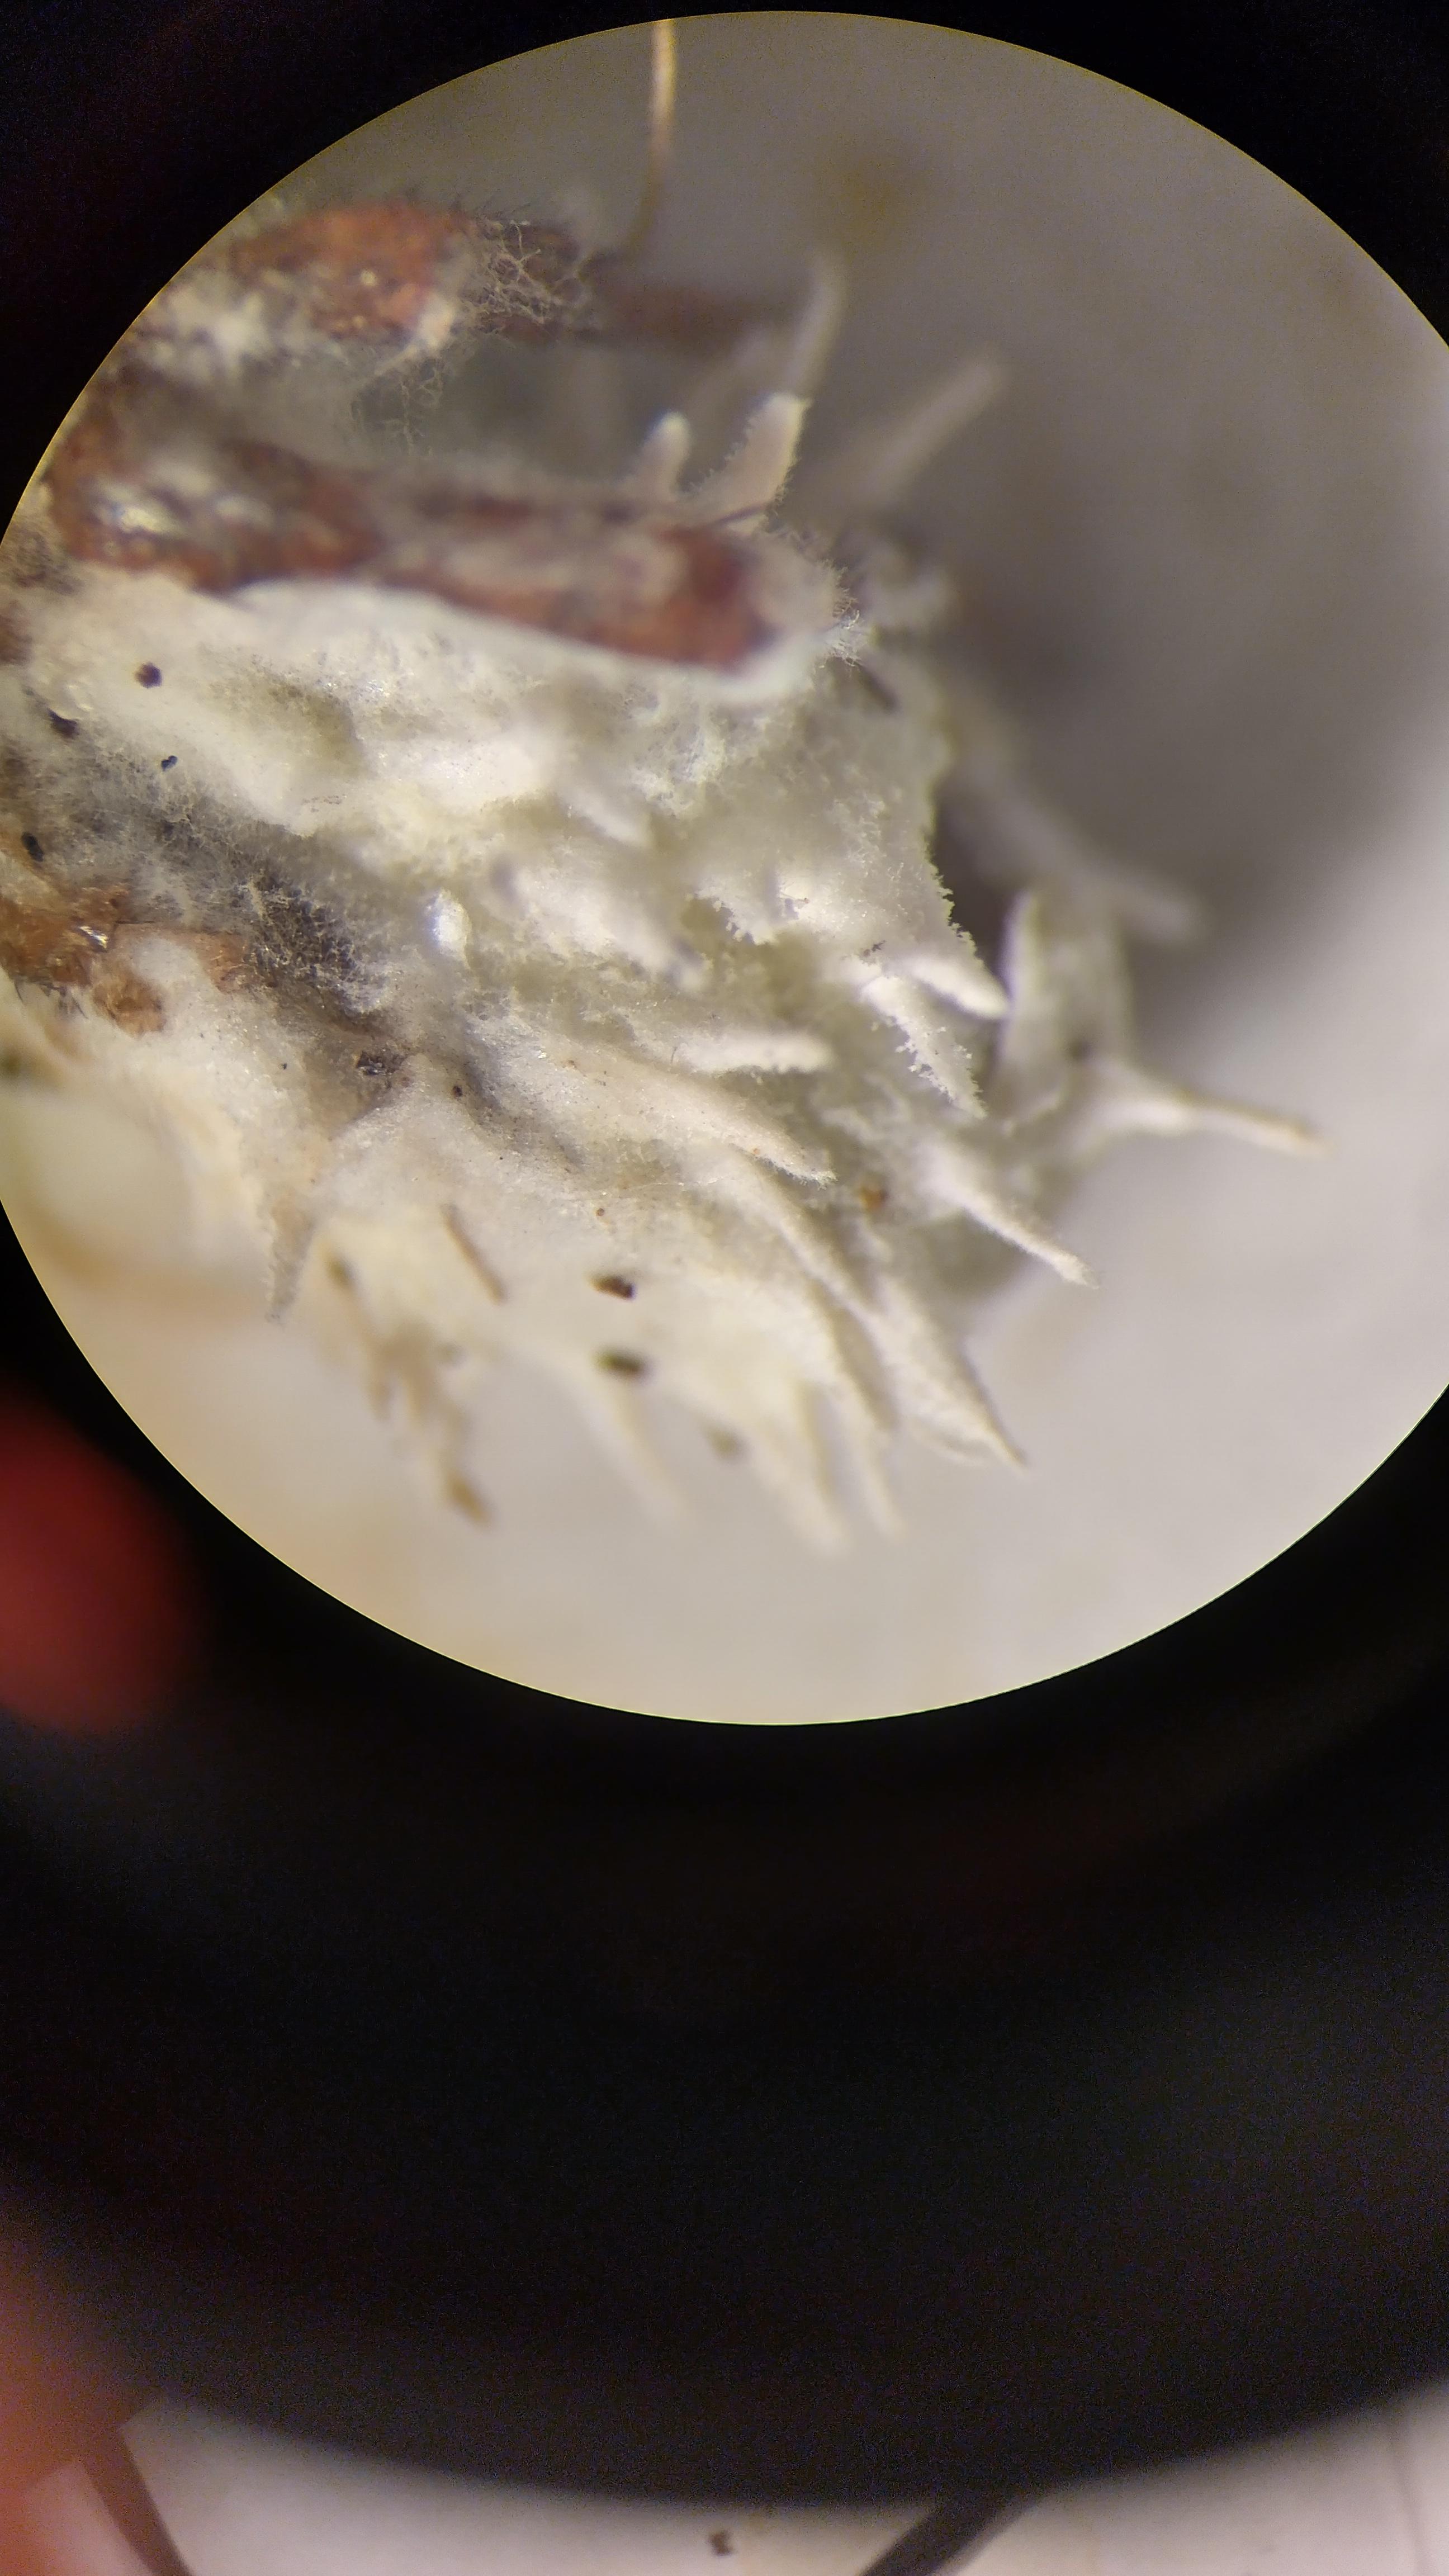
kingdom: Fungi
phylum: Ascomycota
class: Sordariomycetes
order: Hypocreales
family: Cordycipitaceae
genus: Gibellula
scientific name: Gibellula pulchra
